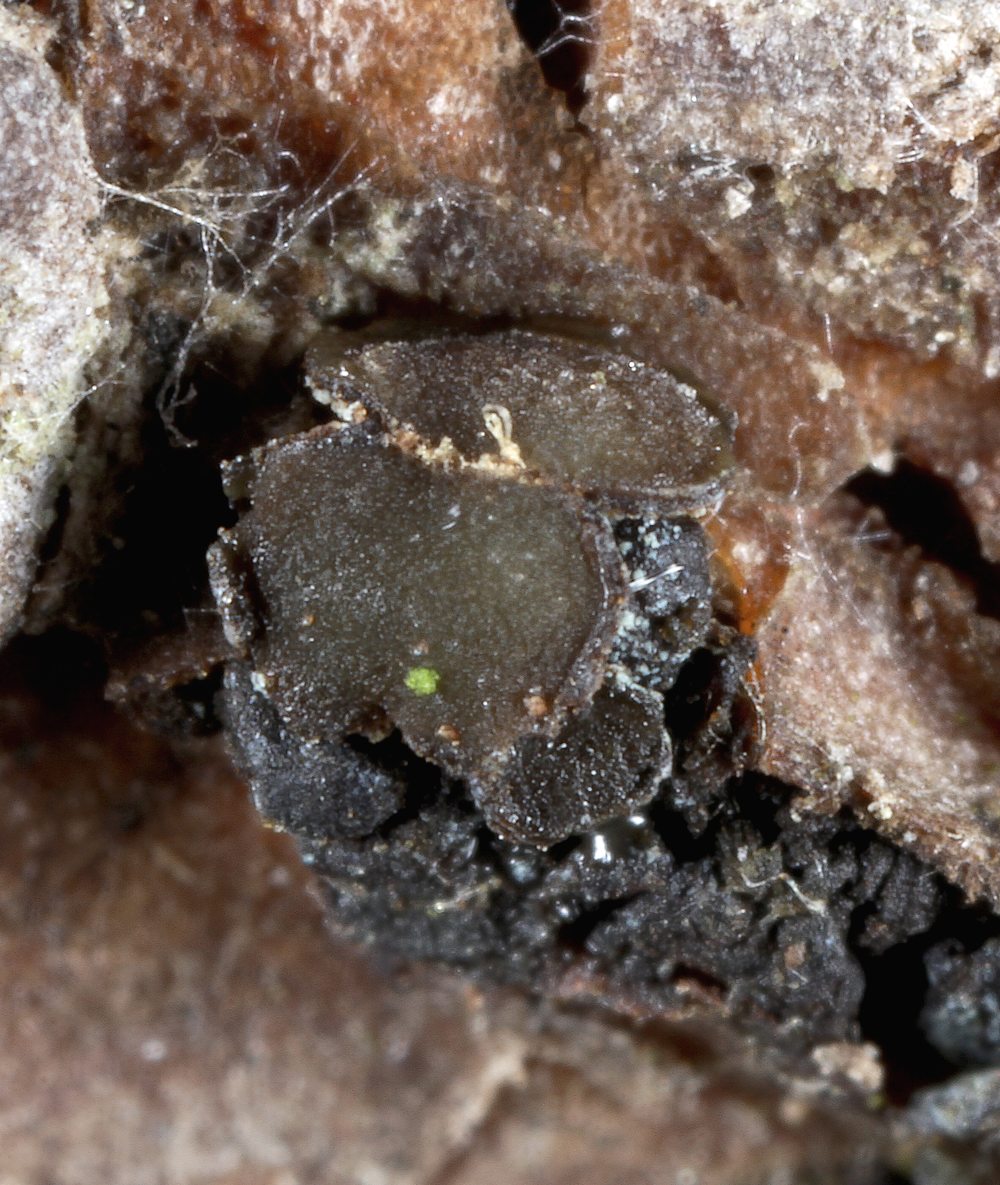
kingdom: Fungi
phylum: Ascomycota
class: Leotiomycetes
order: Helotiales
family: Cenangiaceae
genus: Cenangium
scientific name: Cenangium ferruginosum
